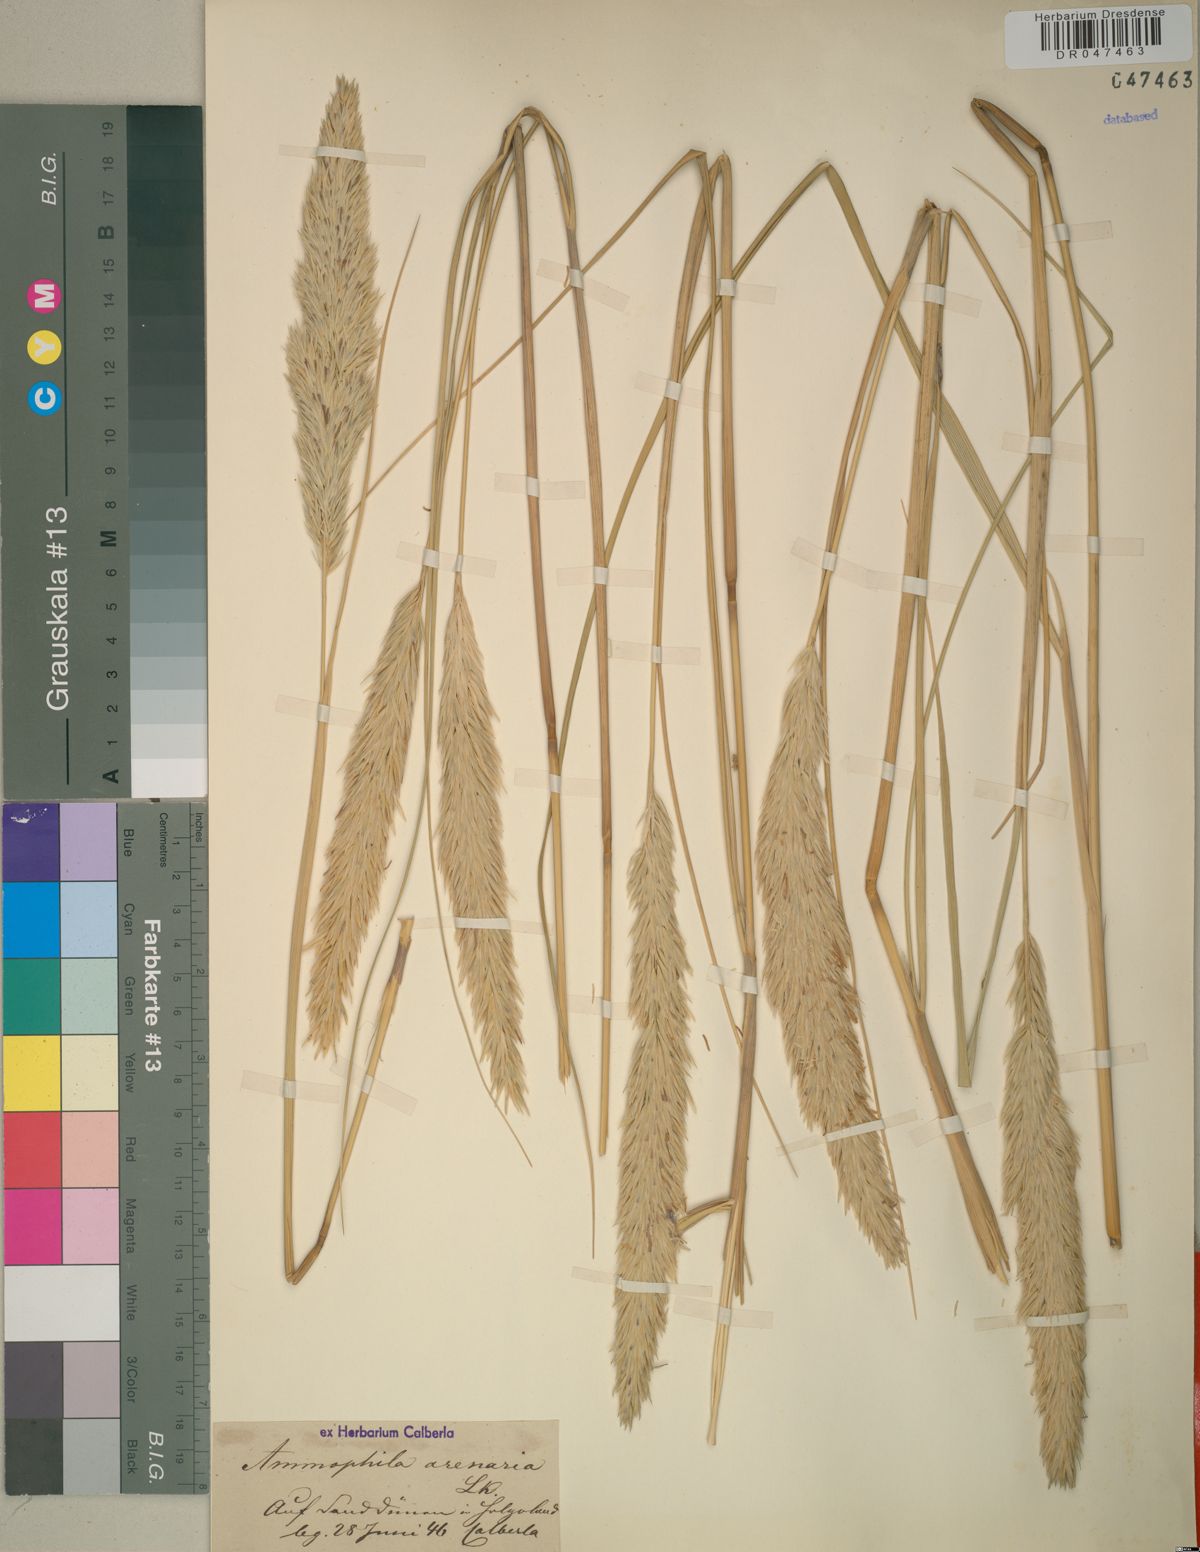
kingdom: Plantae
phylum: Tracheophyta
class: Liliopsida
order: Poales
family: Poaceae
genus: Calamagrostis
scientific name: Calamagrostis arenaria
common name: European beachgrass
